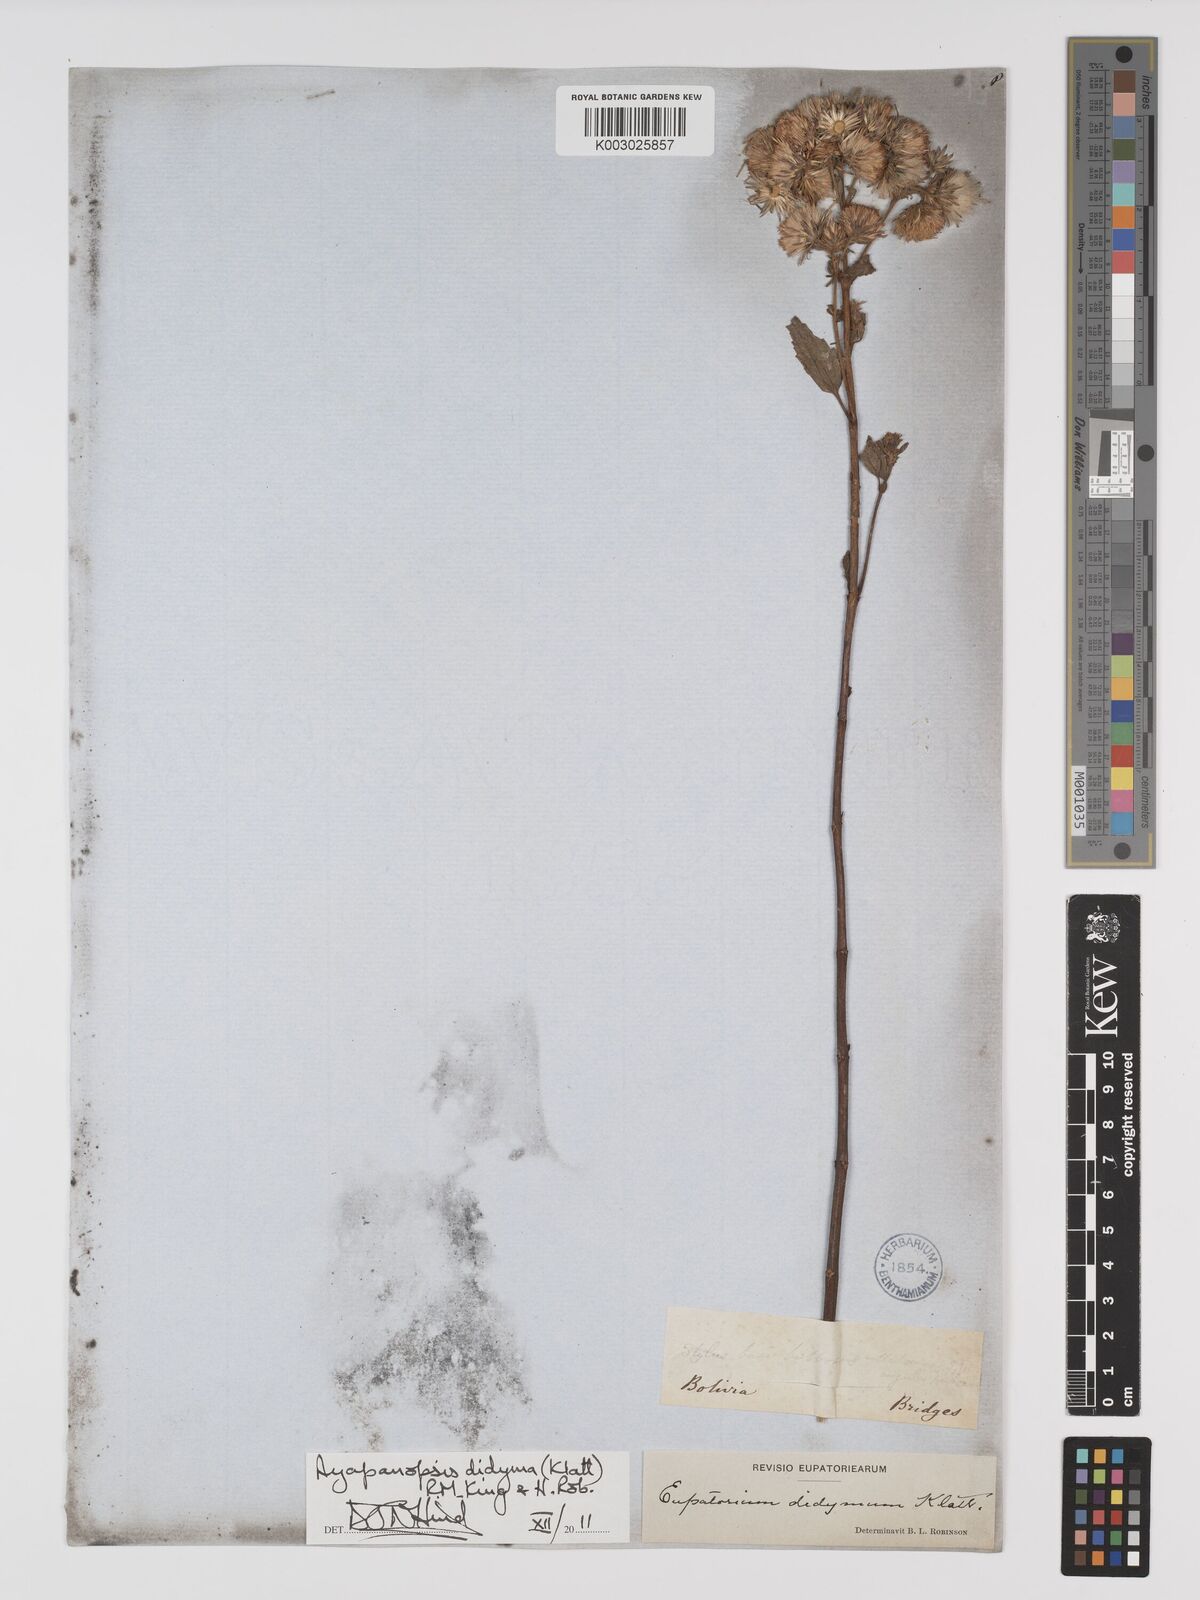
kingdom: Plantae
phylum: Tracheophyta
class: Magnoliopsida
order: Asterales
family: Asteraceae
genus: Heterocondylus
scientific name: Heterocondylus didymus
